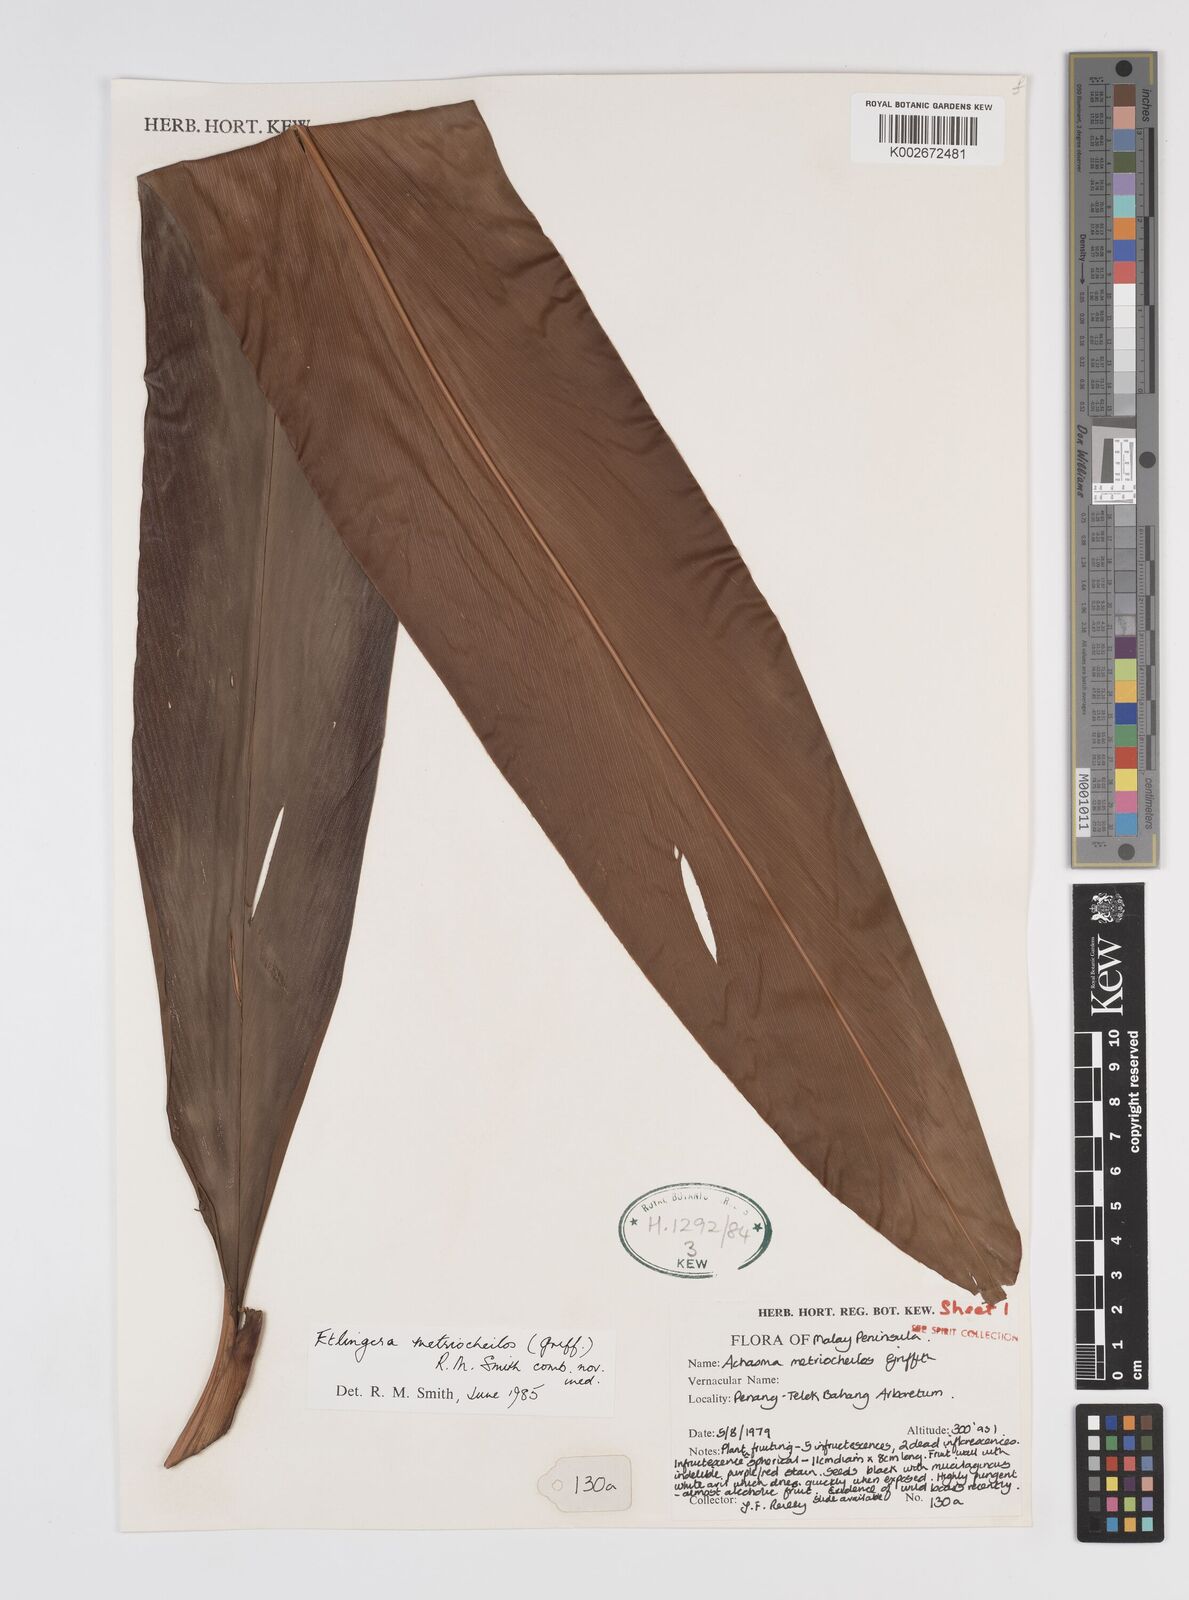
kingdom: Plantae
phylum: Tracheophyta
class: Liliopsida
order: Zingiberales
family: Zingiberaceae
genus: Etlingera
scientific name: Etlingera metriocheilos
